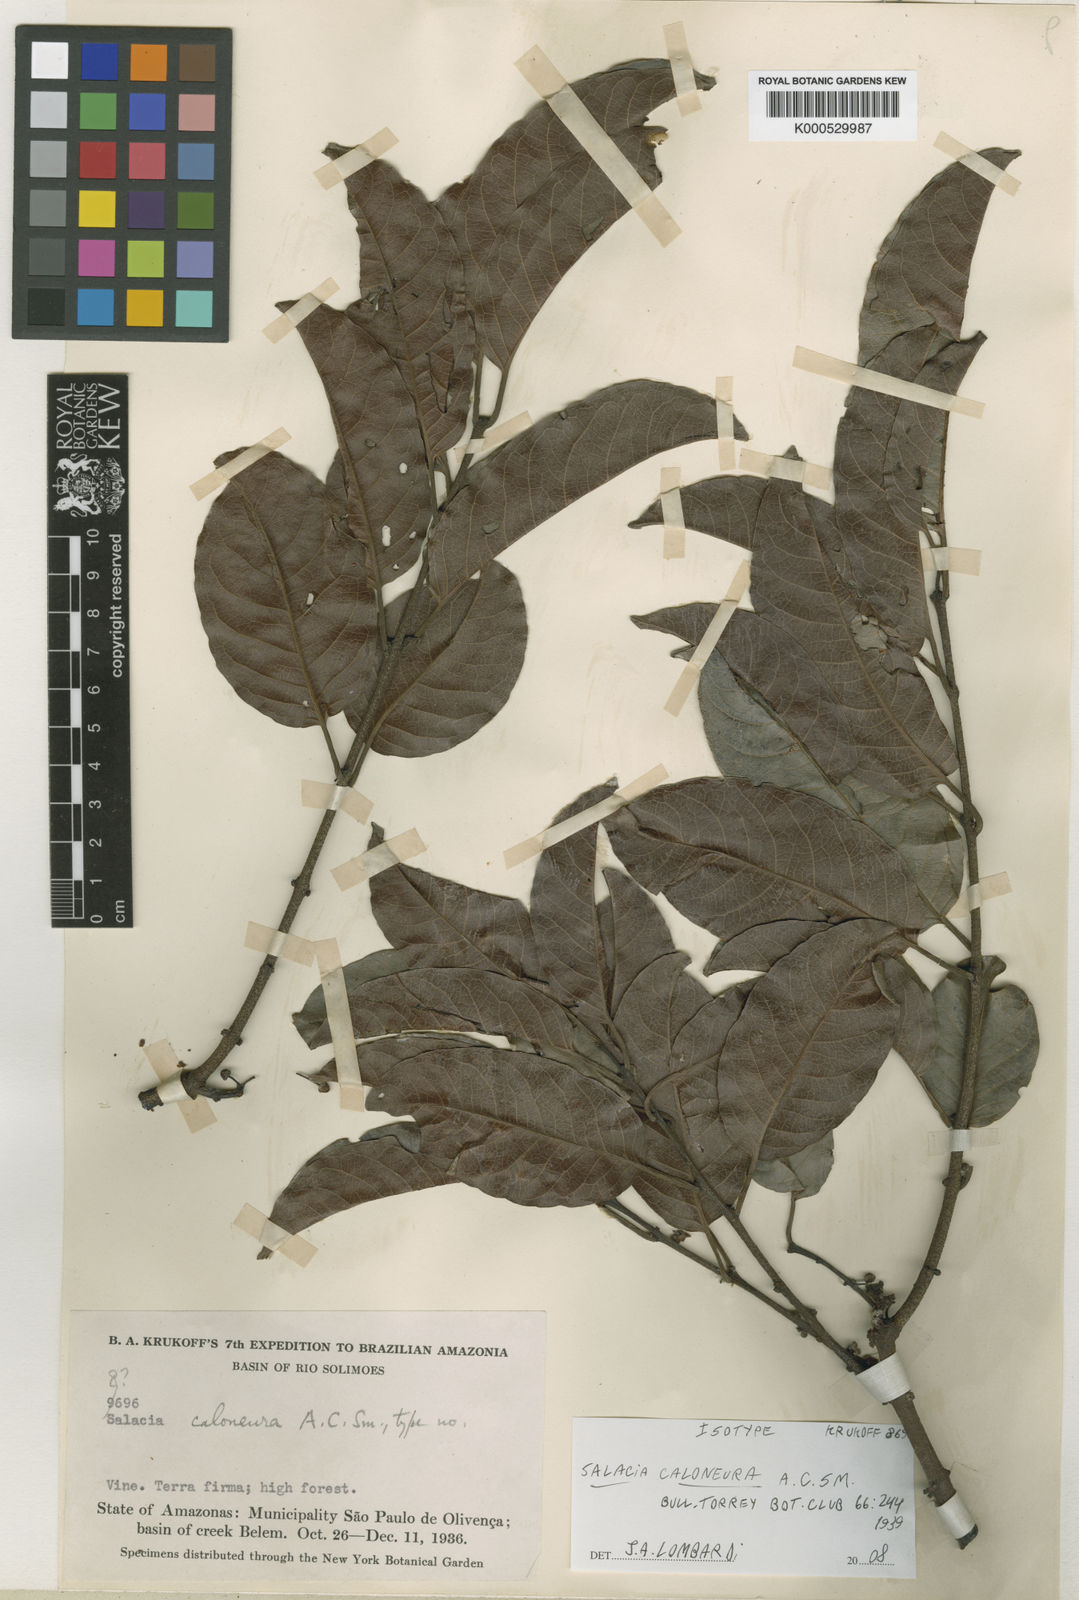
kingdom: Plantae
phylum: Tracheophyta
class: Magnoliopsida
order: Celastrales
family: Celastraceae
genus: Salacia
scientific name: Salacia caloneura
